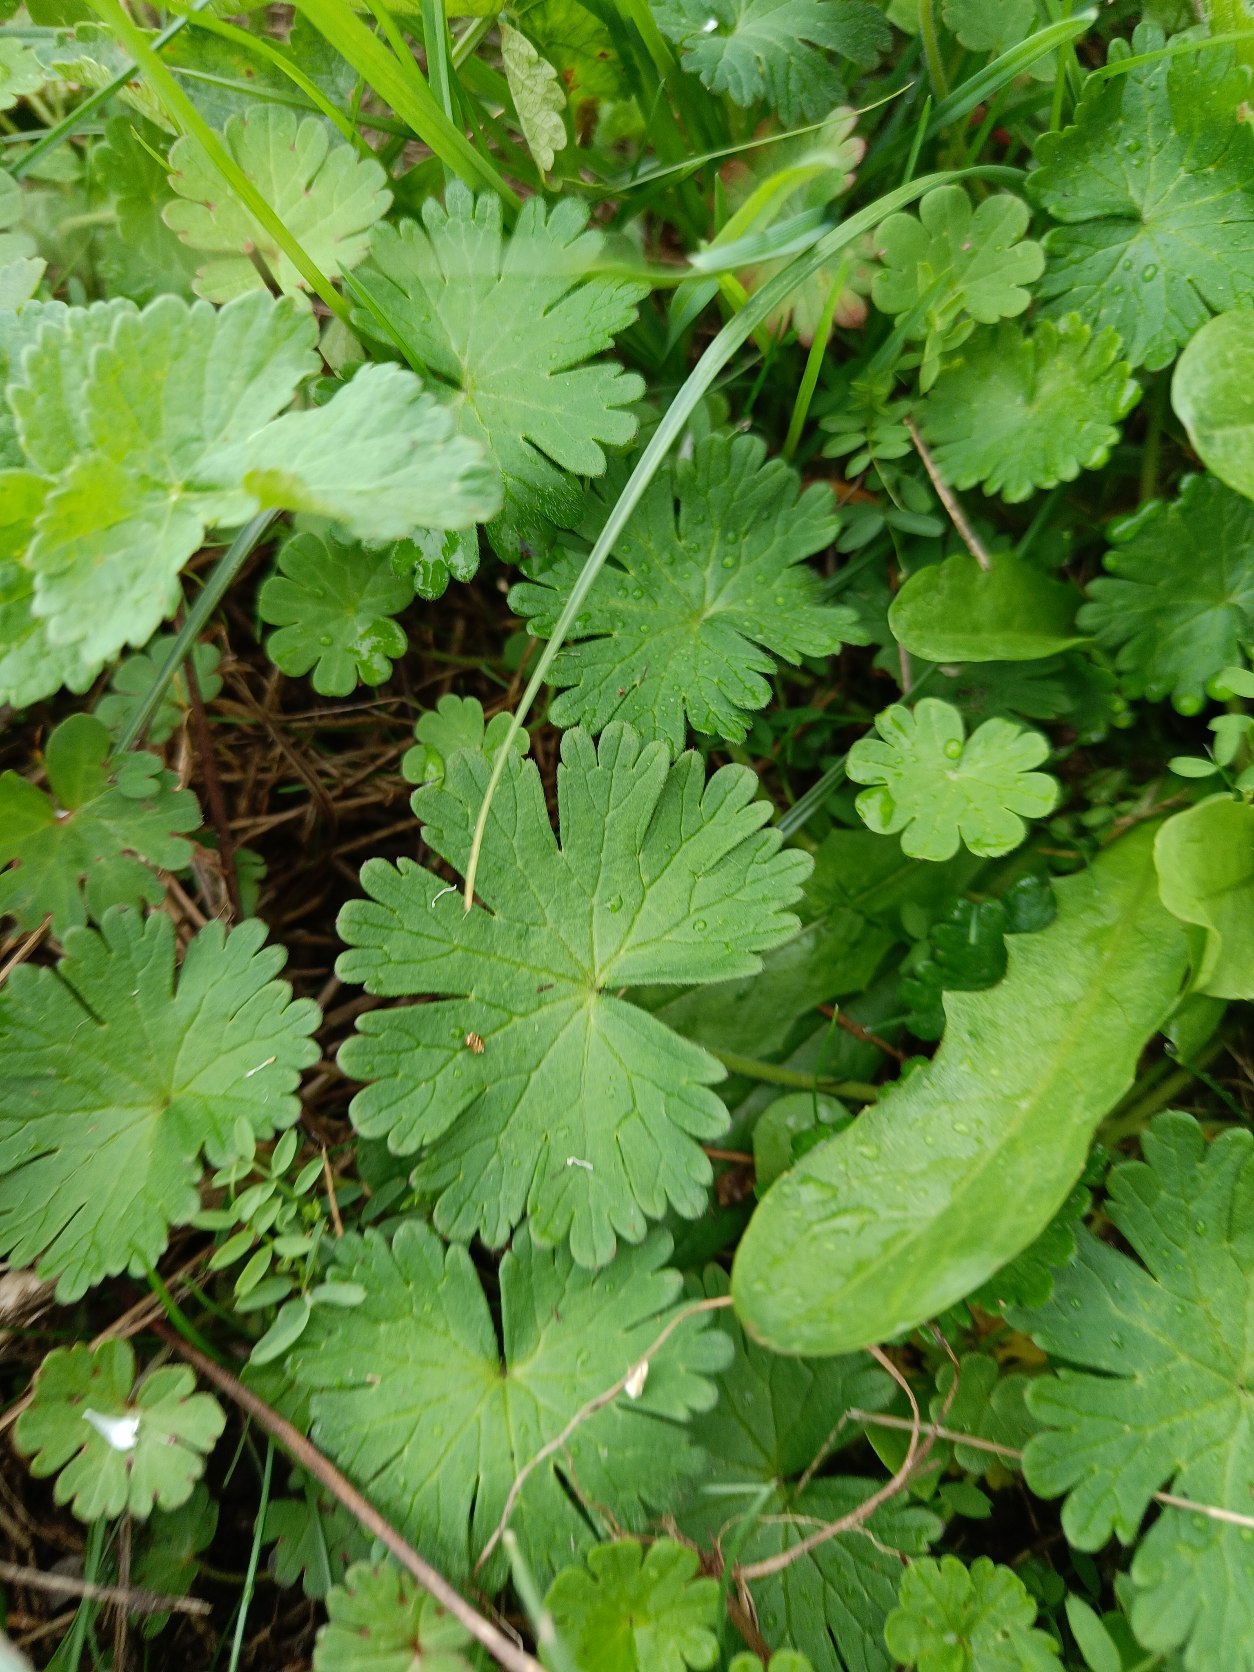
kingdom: Plantae
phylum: Tracheophyta
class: Magnoliopsida
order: Geraniales
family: Geraniaceae
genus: Geranium
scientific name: Geranium
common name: Storkenæbslægten
